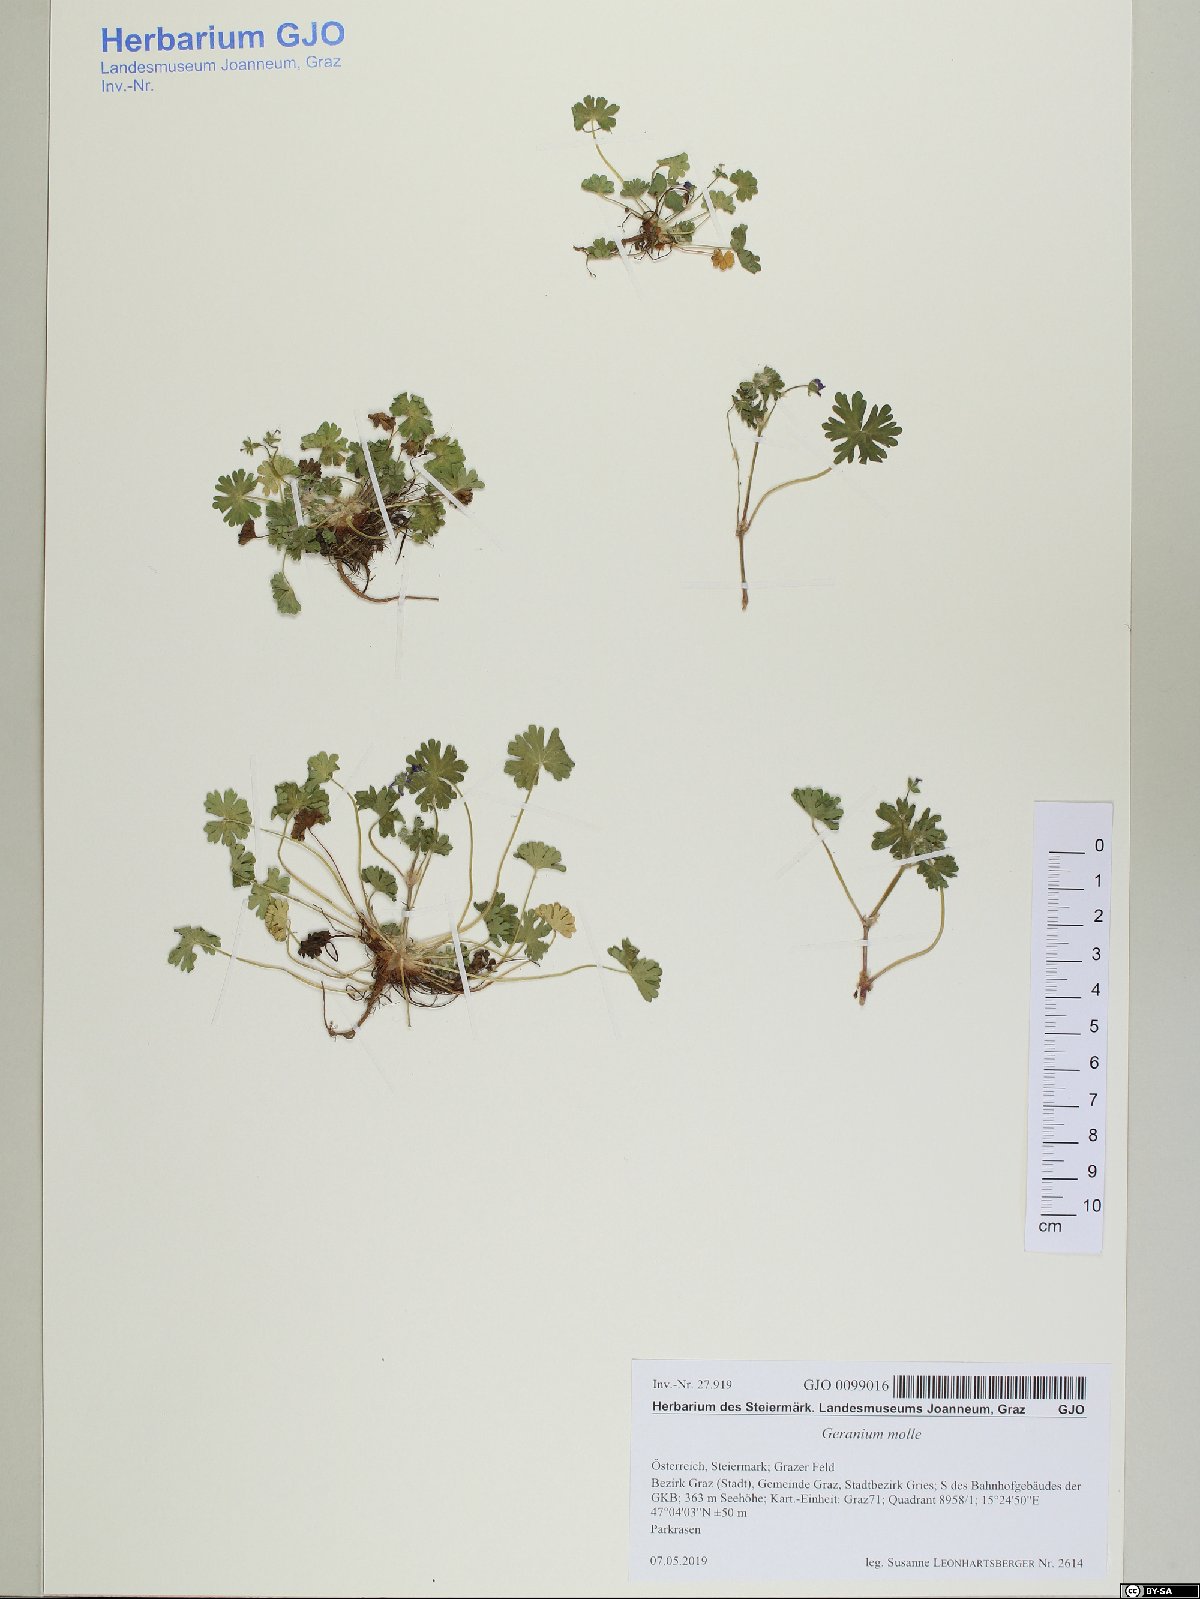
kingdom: Plantae
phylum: Tracheophyta
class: Magnoliopsida
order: Geraniales
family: Geraniaceae
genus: Geranium
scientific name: Geranium molle
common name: Dove's-foot crane's-bill
